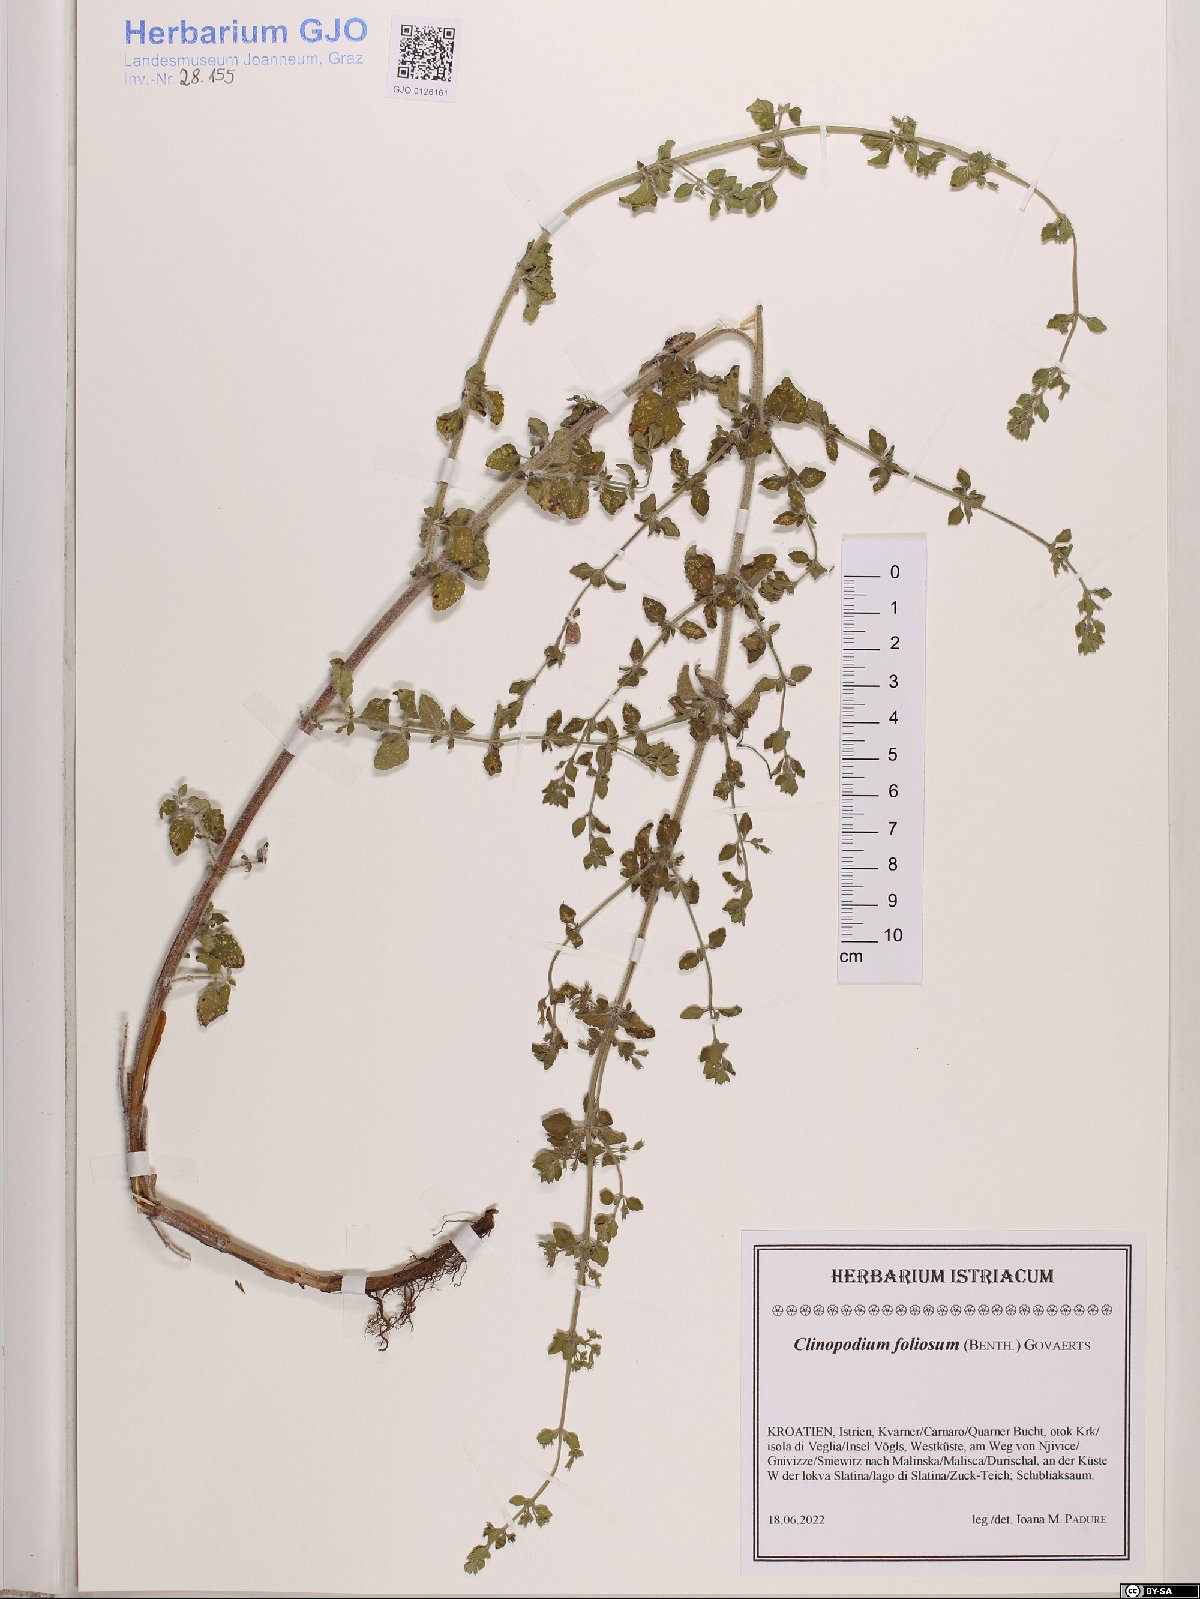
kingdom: Plantae
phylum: Tracheophyta
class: Magnoliopsida
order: Lamiales
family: Lamiaceae
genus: Clinopodium
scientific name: Clinopodium foliolosum
